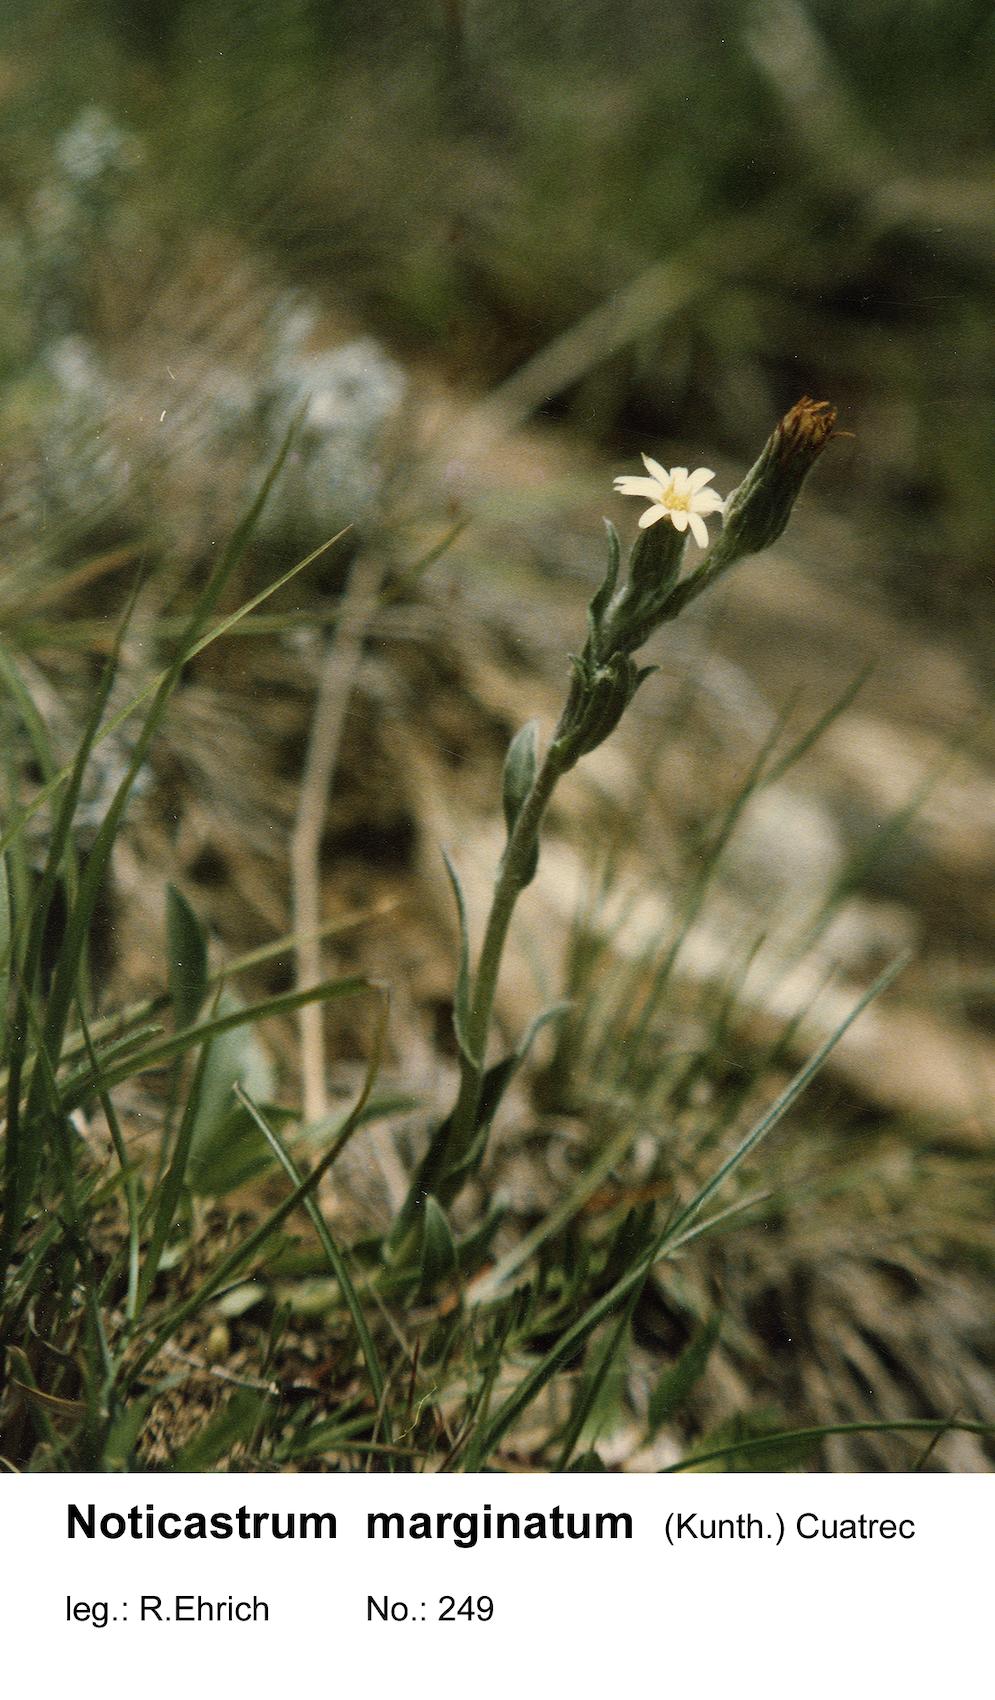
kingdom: Plantae
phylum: Tracheophyta
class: Magnoliopsida
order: Asterales
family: Asteraceae
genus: Noticastrum
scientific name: Noticastrum marginatum
